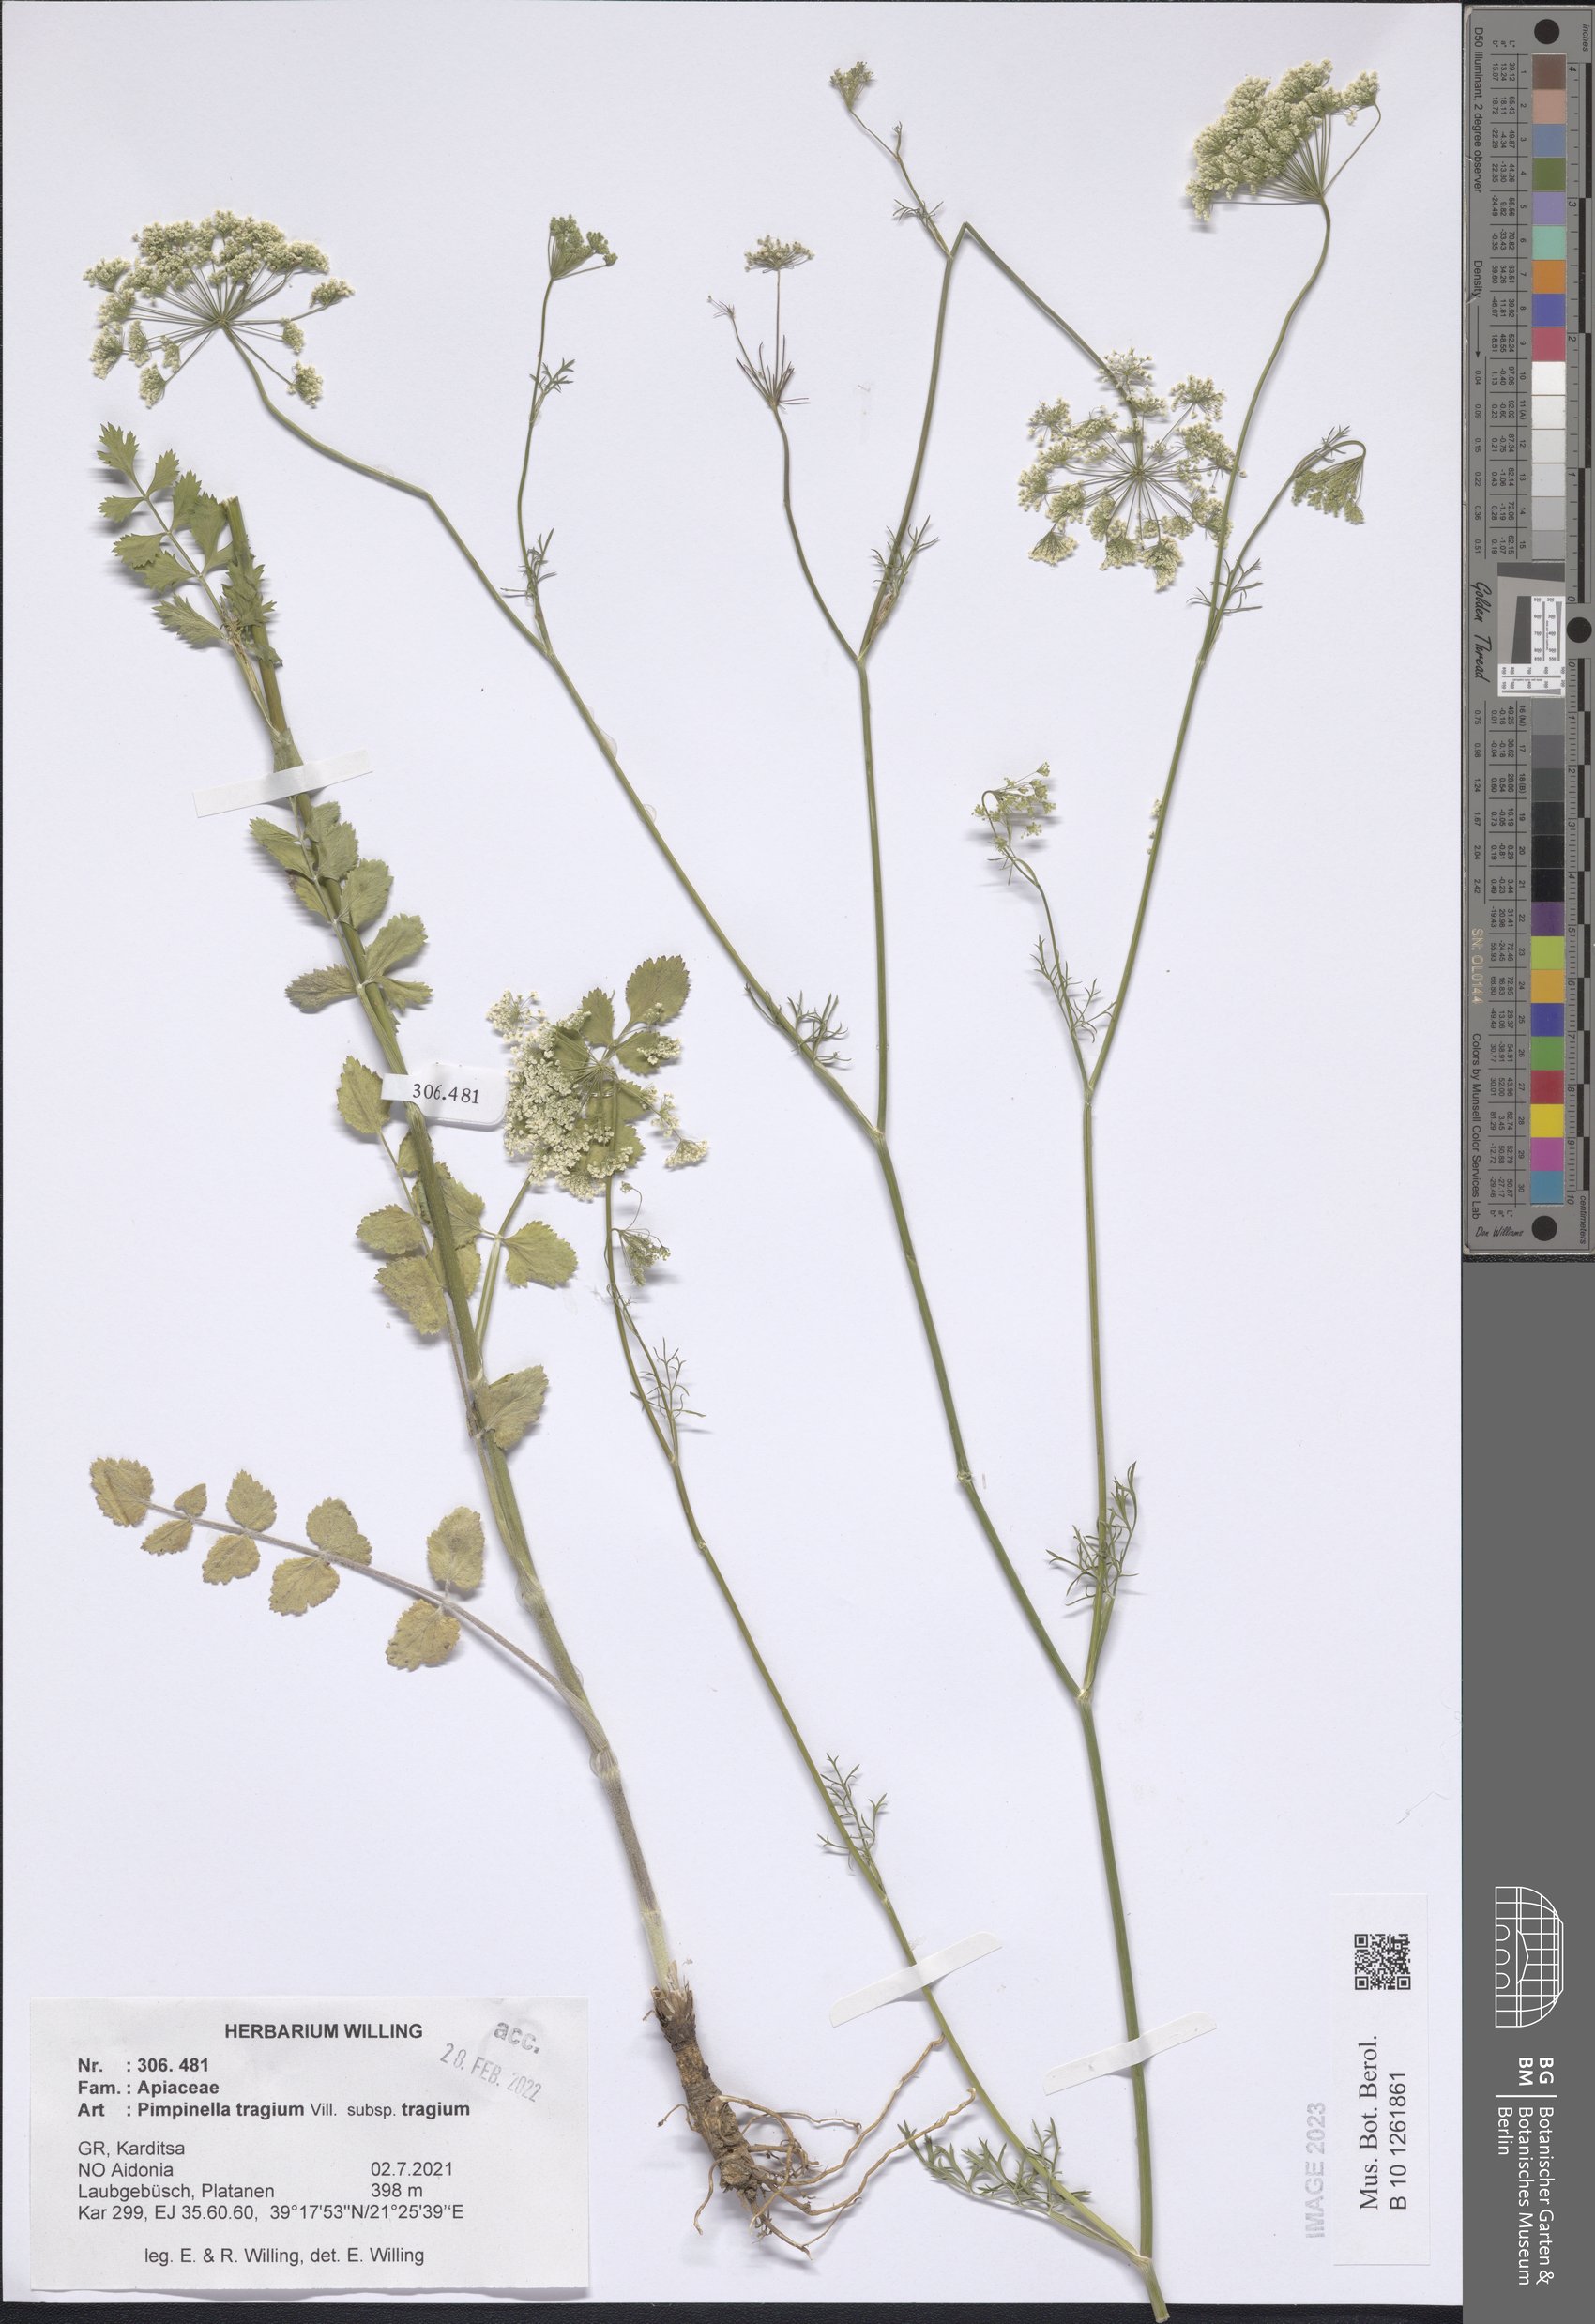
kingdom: Plantae
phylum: Tracheophyta
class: Magnoliopsida
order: Apiales
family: Apiaceae
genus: Pimpinella
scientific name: Pimpinella tragium
